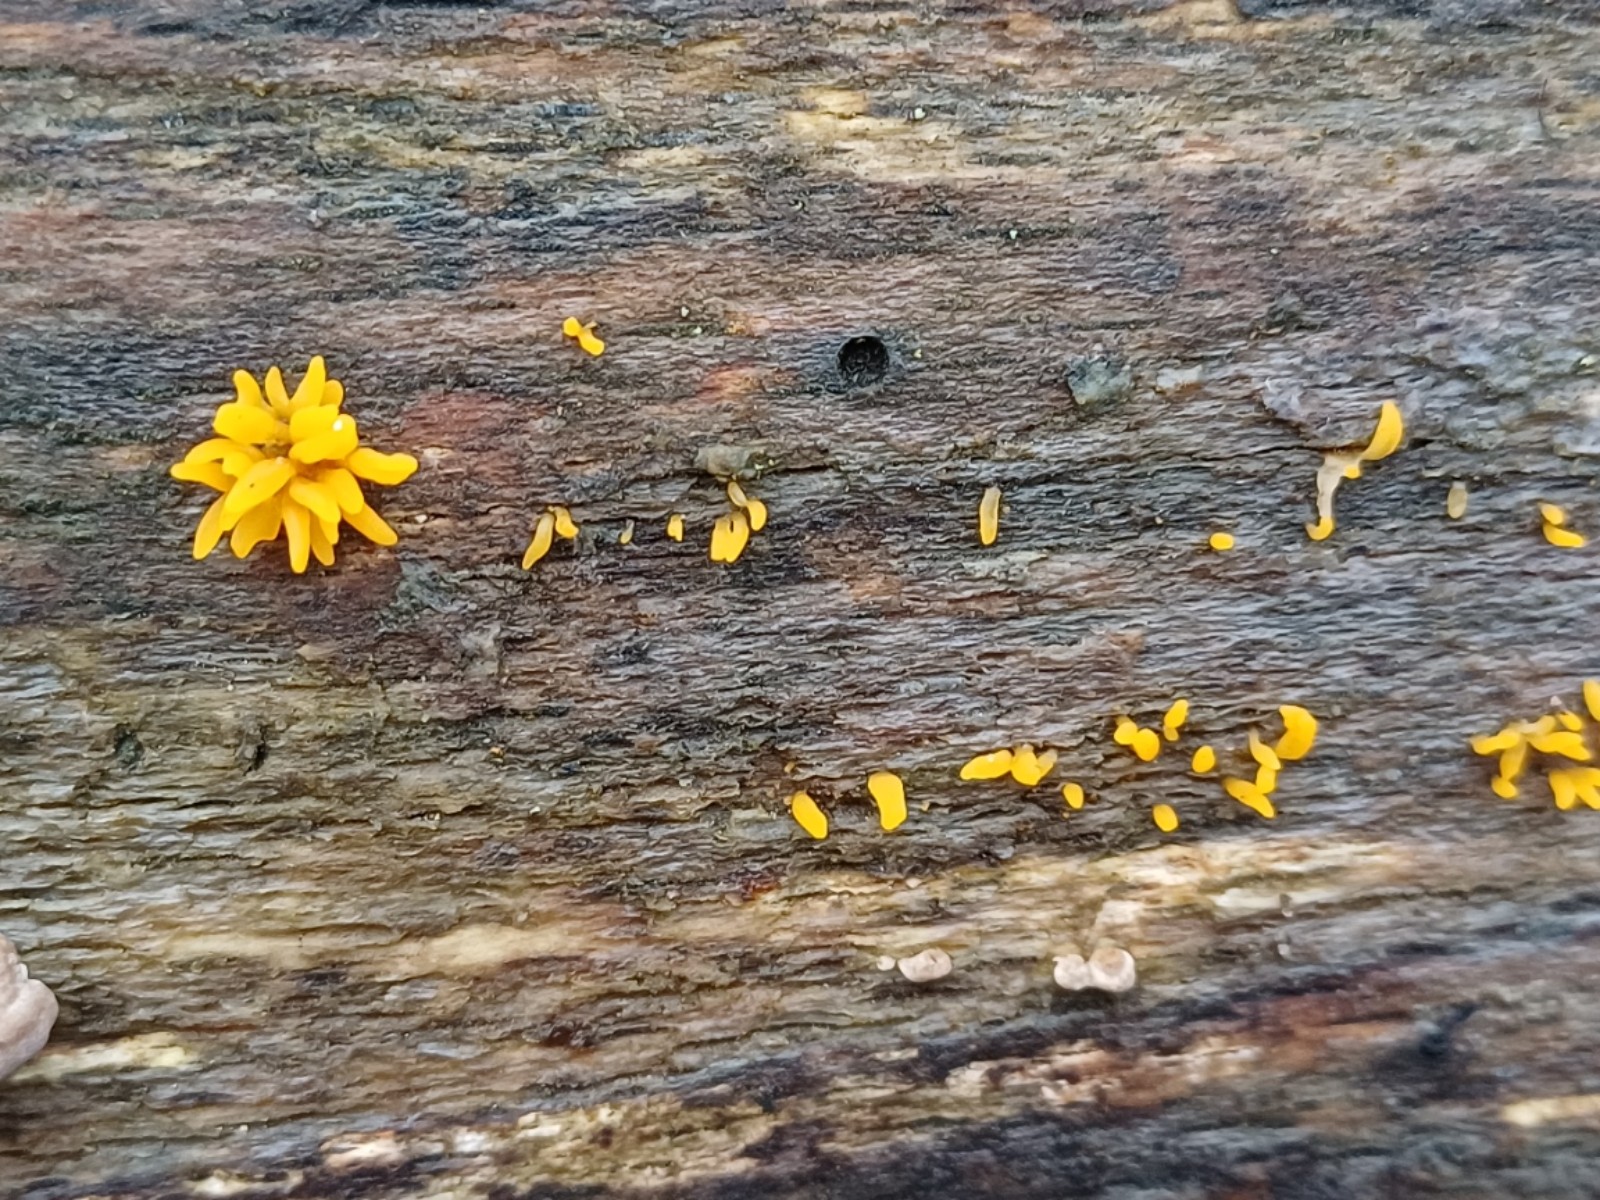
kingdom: Fungi
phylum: Basidiomycota
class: Dacrymycetes
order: Dacrymycetales
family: Dacrymycetaceae
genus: Calocera
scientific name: Calocera cornea
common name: liden guldgaffel
